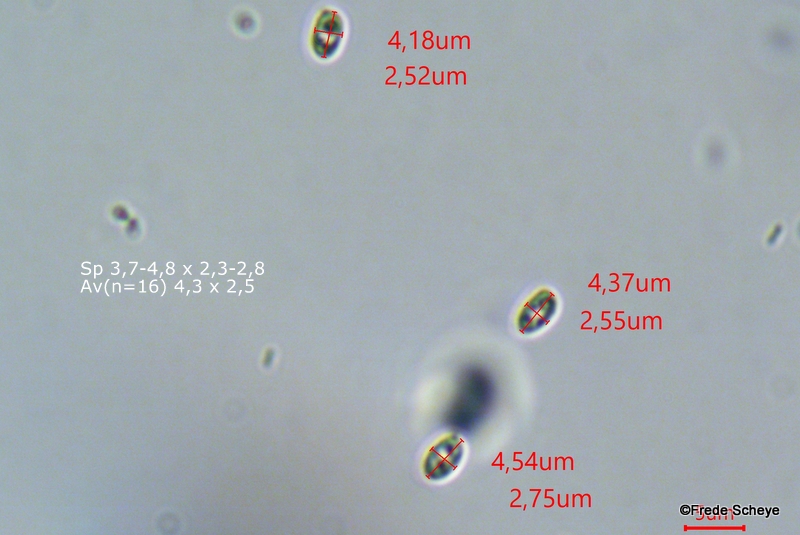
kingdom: Fungi
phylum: Basidiomycota
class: Agaricomycetes
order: Agaricales
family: Agaricaceae
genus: Cystolepiota
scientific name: Cystolepiota seminuda
